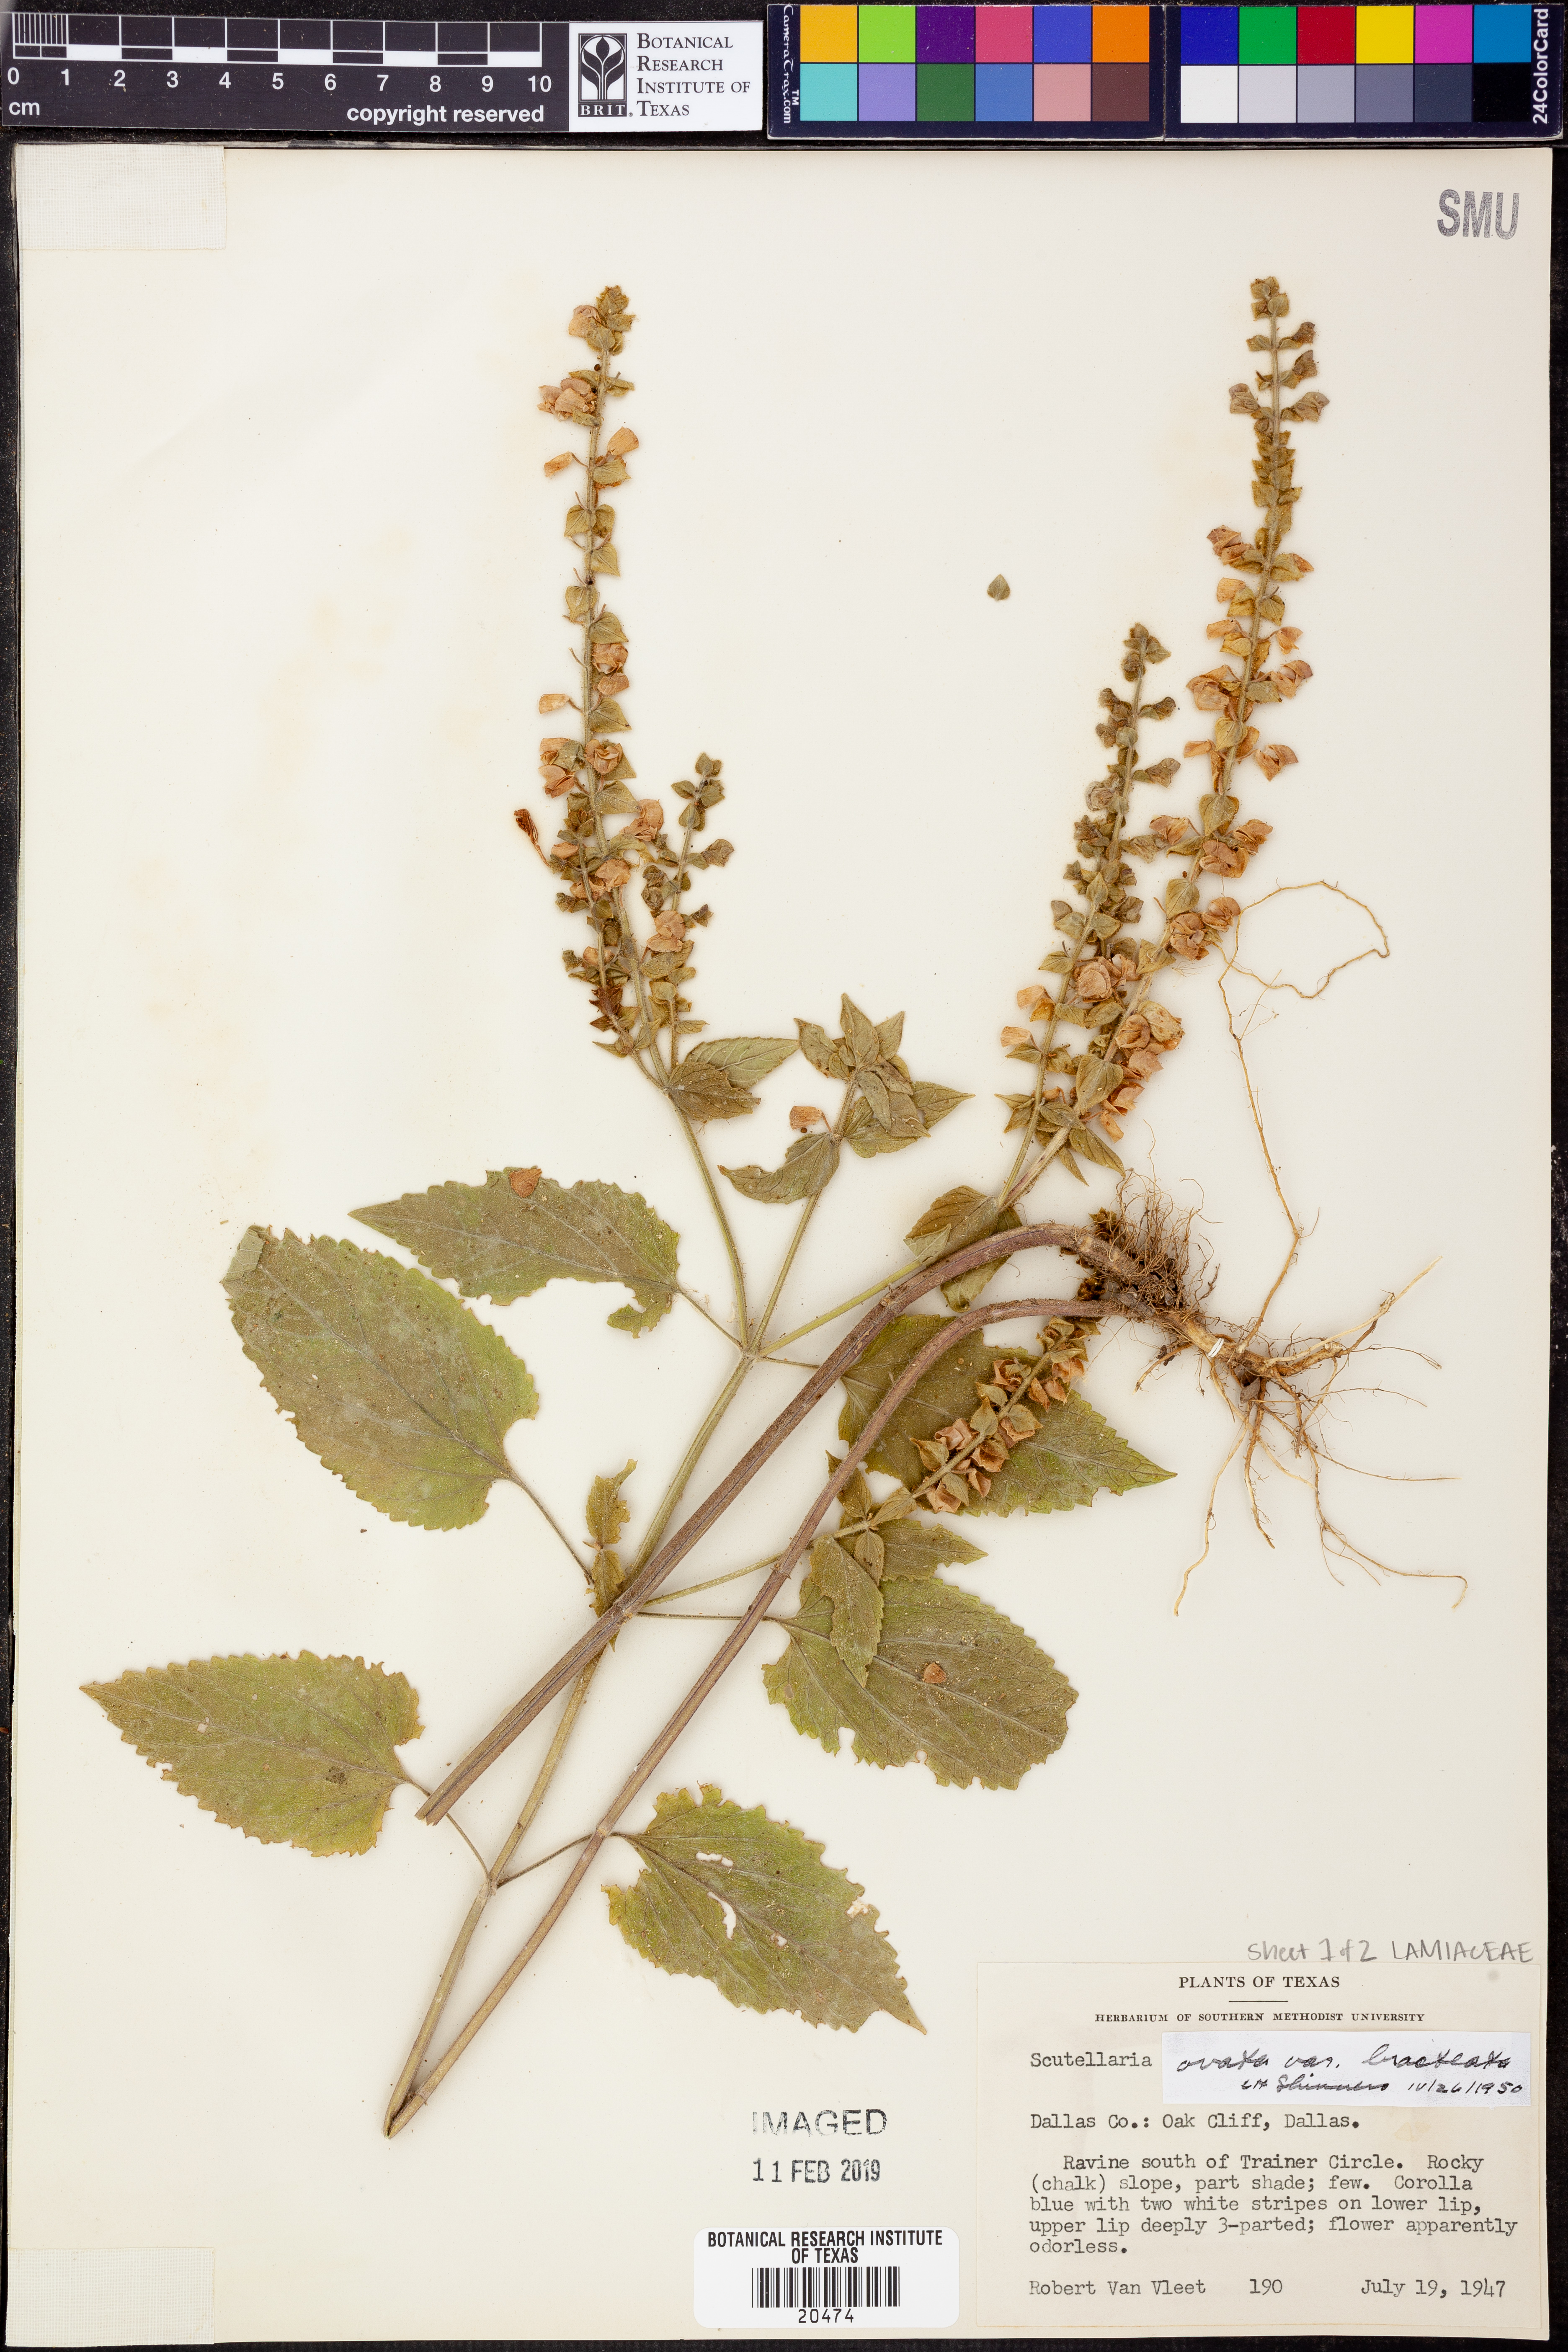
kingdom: Plantae
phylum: Tracheophyta
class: Magnoliopsida
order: Lamiales
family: Lamiaceae
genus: Scutellaria
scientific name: Scutellaria ovata
